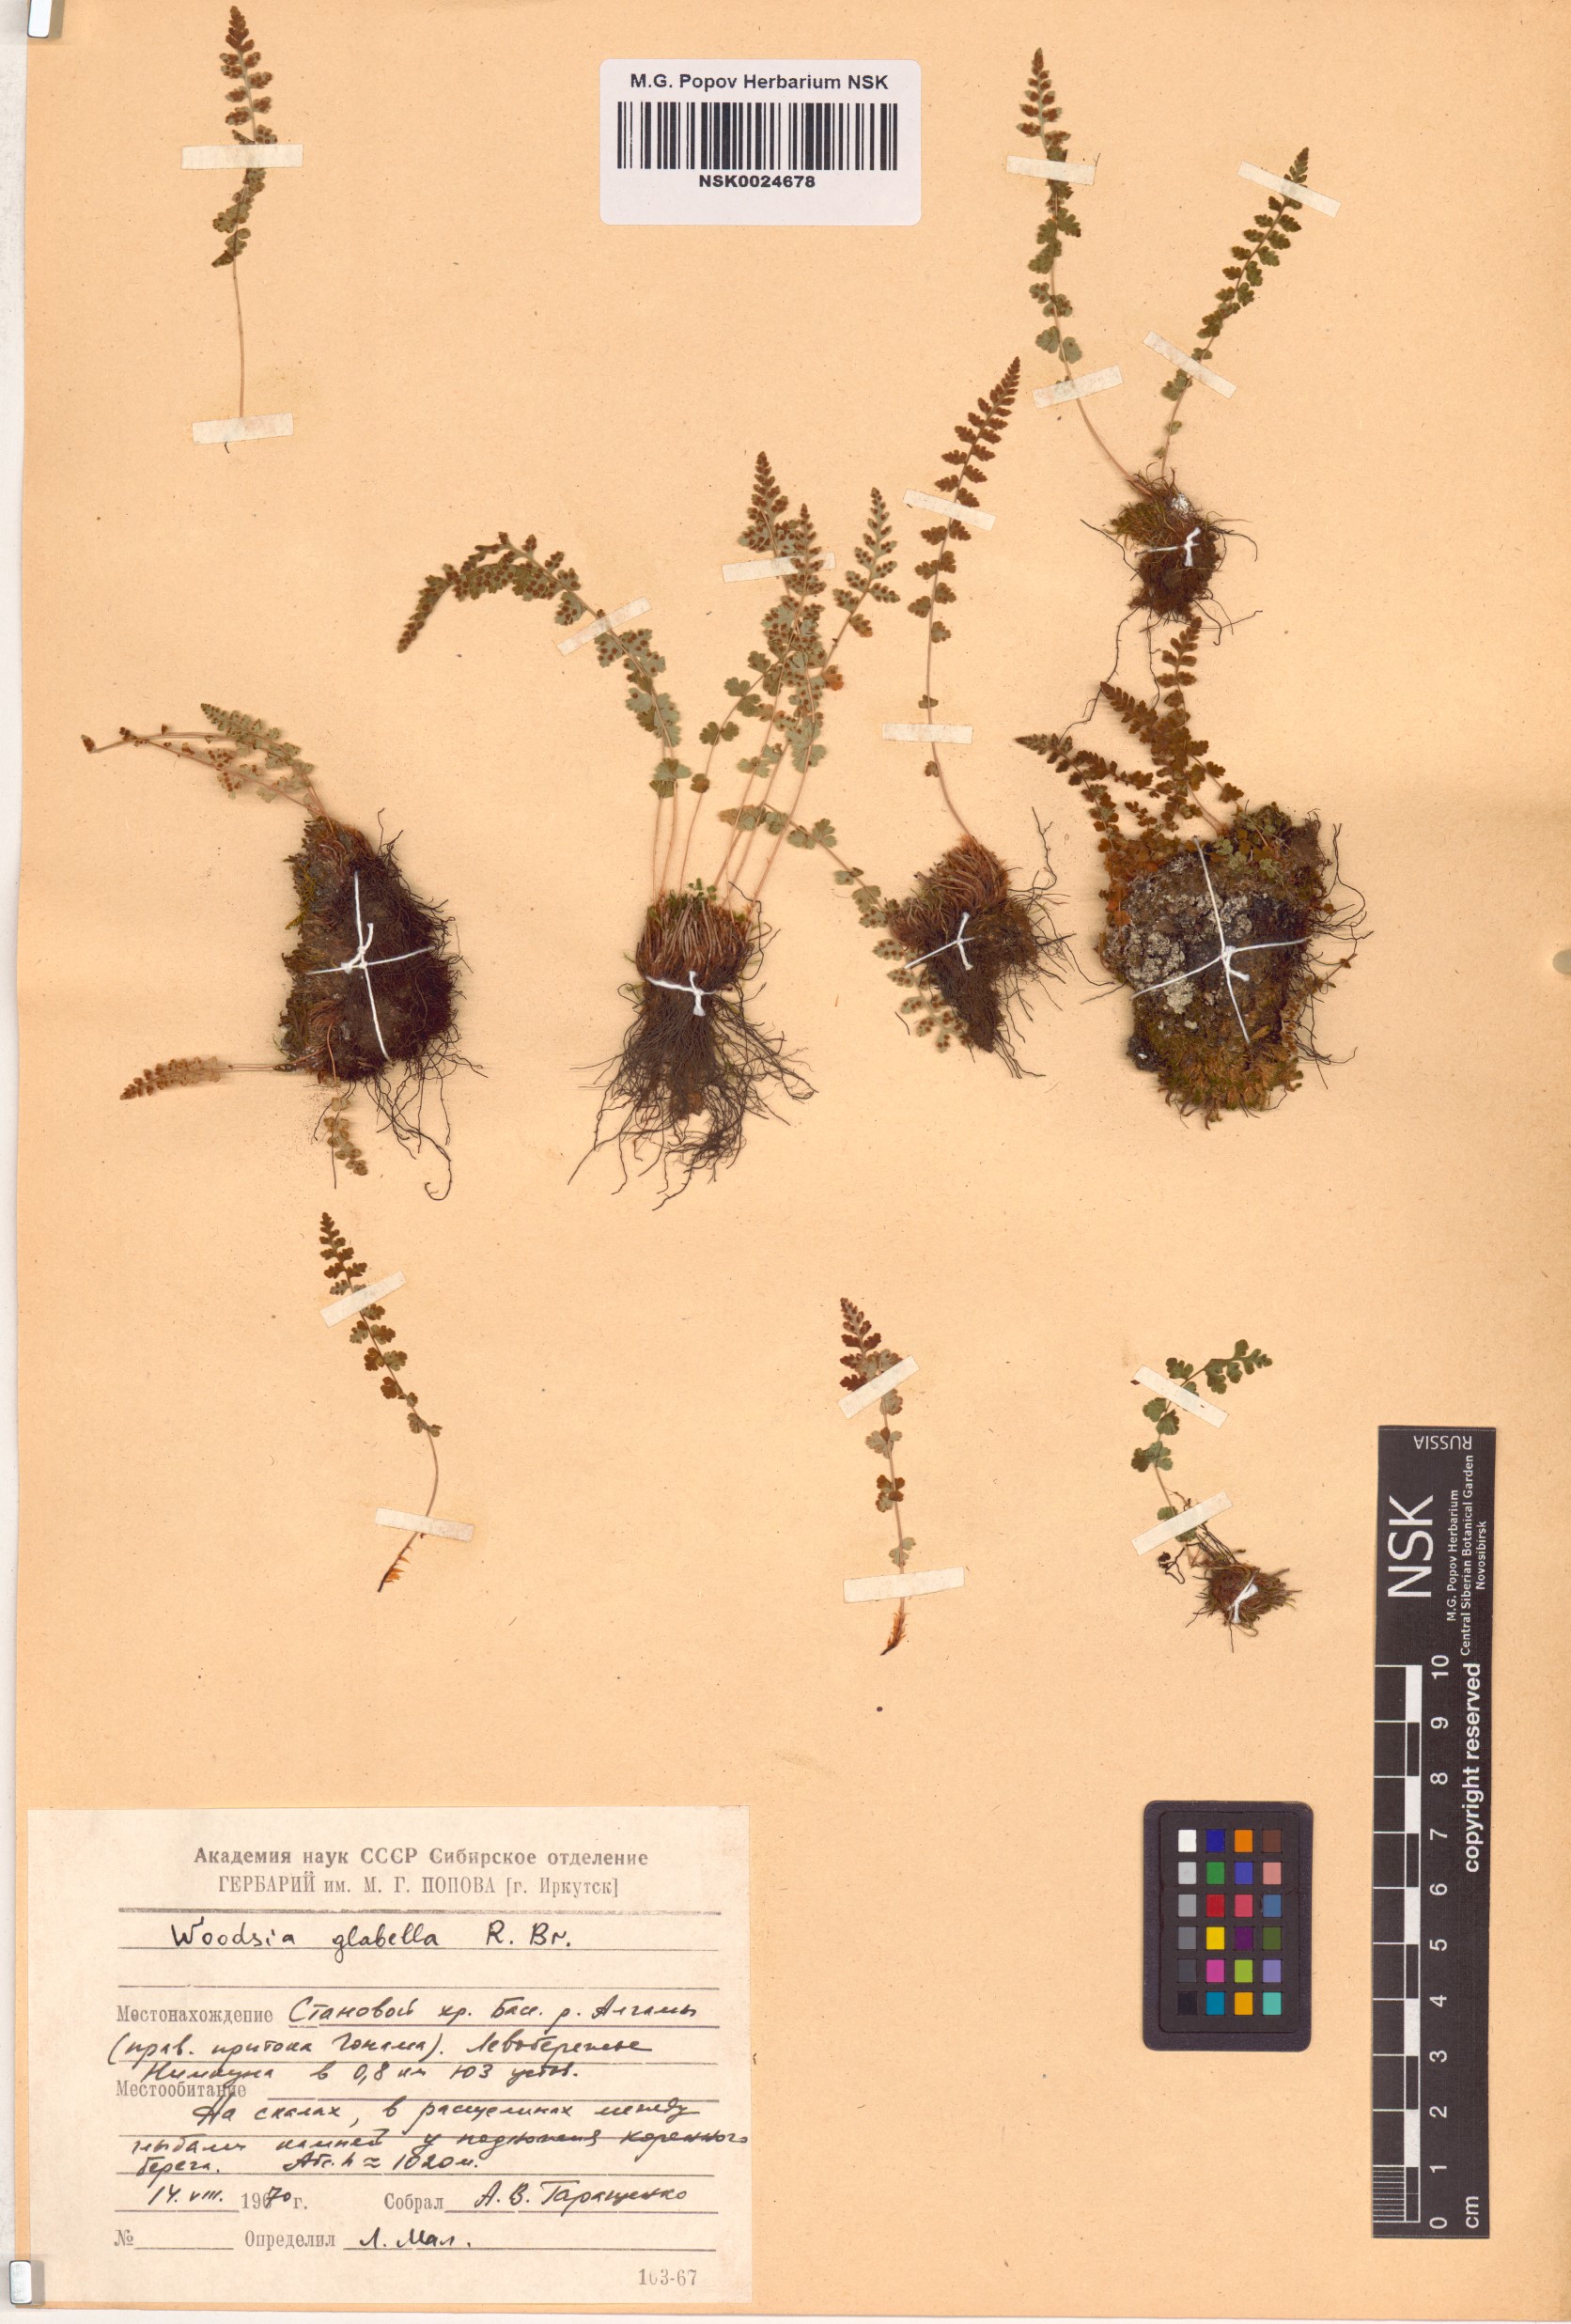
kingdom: Plantae
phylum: Tracheophyta
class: Polypodiopsida
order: Polypodiales
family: Woodsiaceae
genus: Woodsia
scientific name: Woodsia glabella
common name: Smooth woodsia
